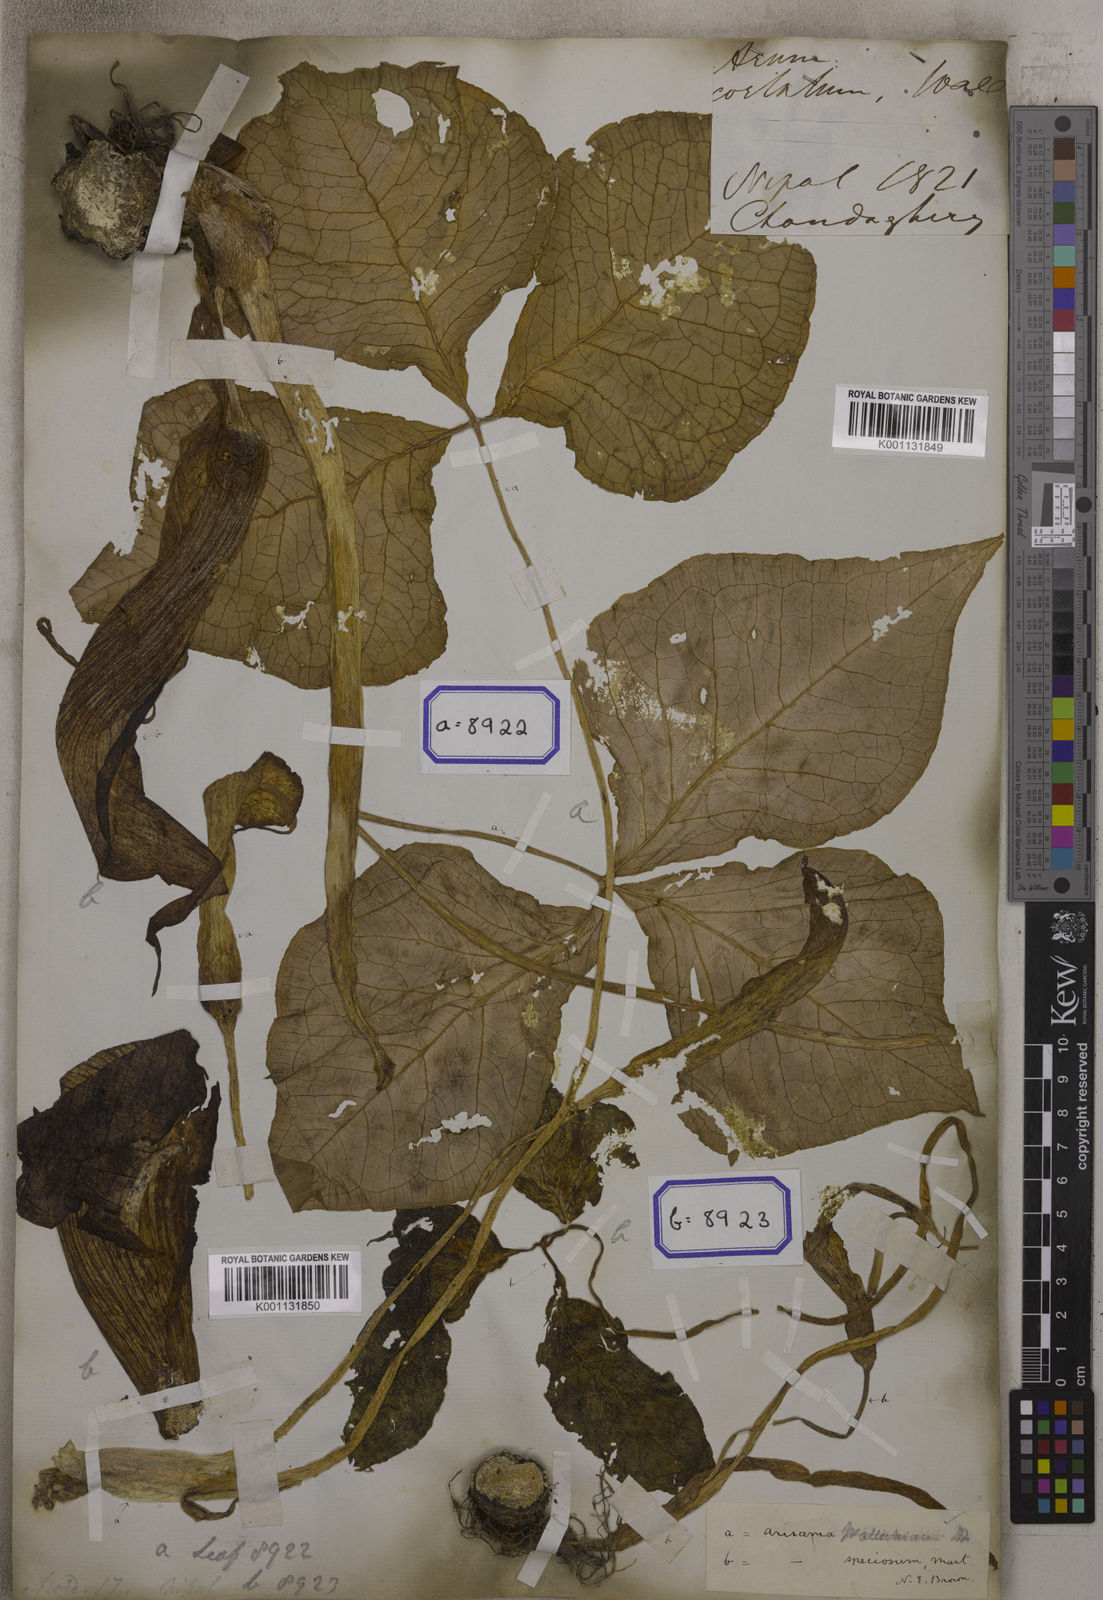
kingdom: Plantae
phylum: Tracheophyta
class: Liliopsida
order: Alismatales
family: Araceae
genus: Arisaema
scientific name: Arisaema speciosum
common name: Showy cobra-lily
